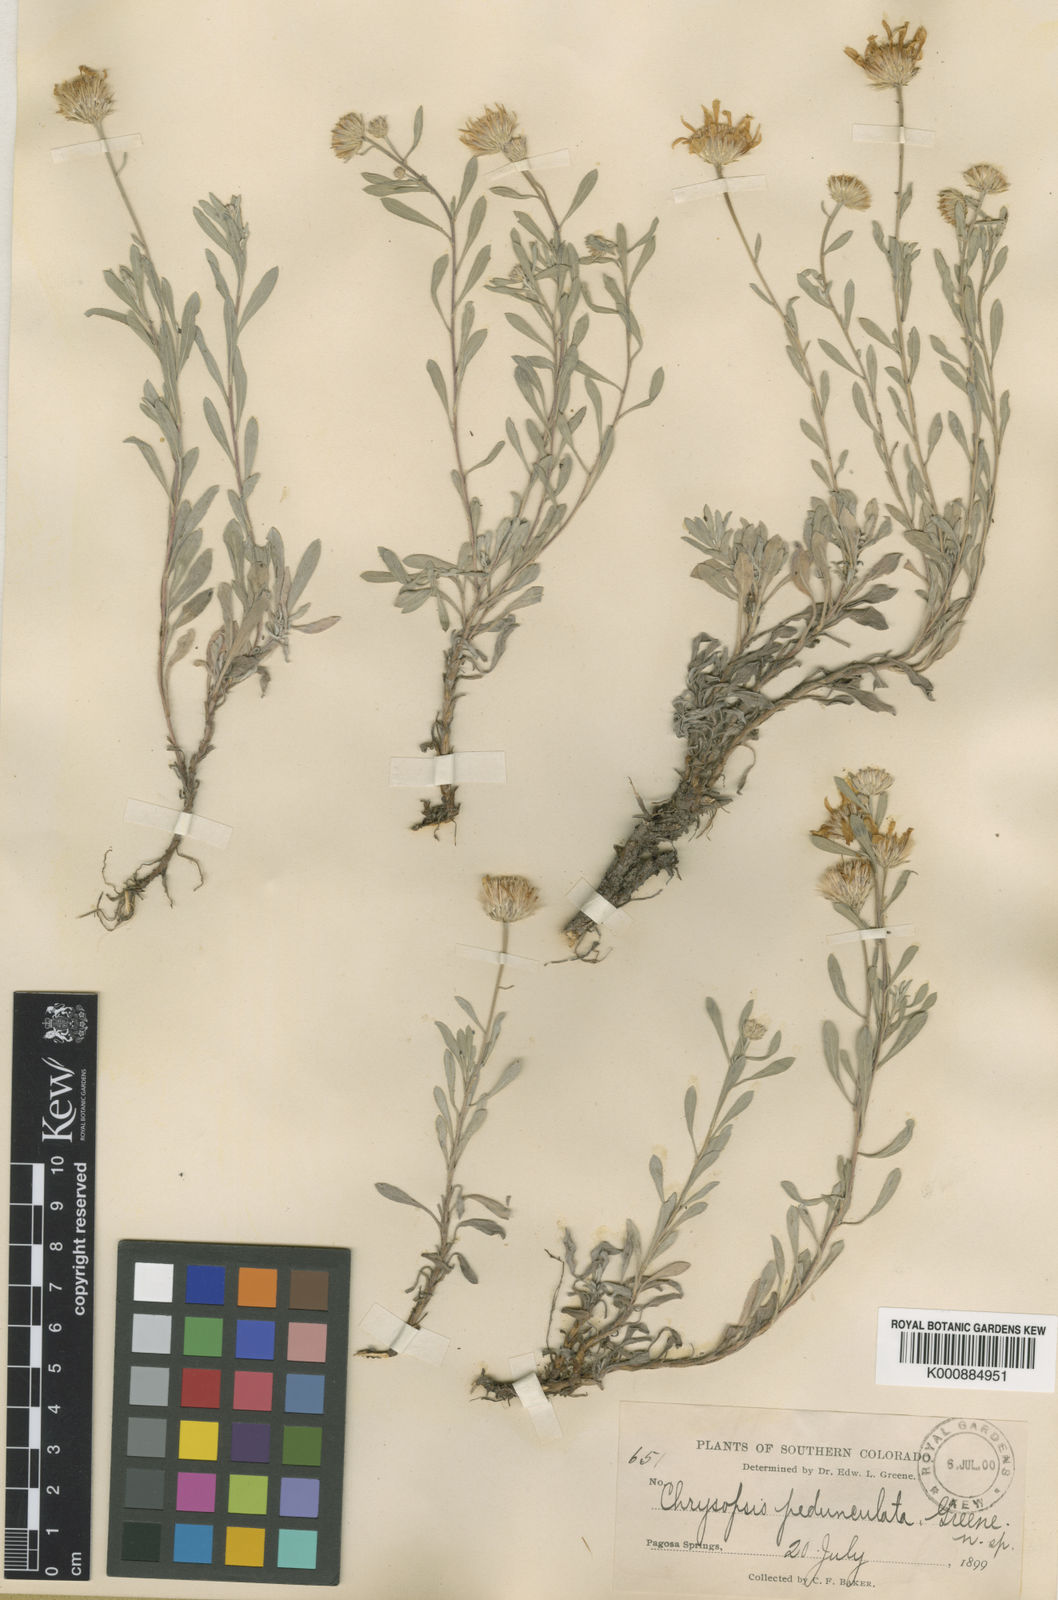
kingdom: Plantae
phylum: Tracheophyta
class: Magnoliopsida
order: Asterales
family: Asteraceae
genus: Heterotheca
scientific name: Heterotheca
